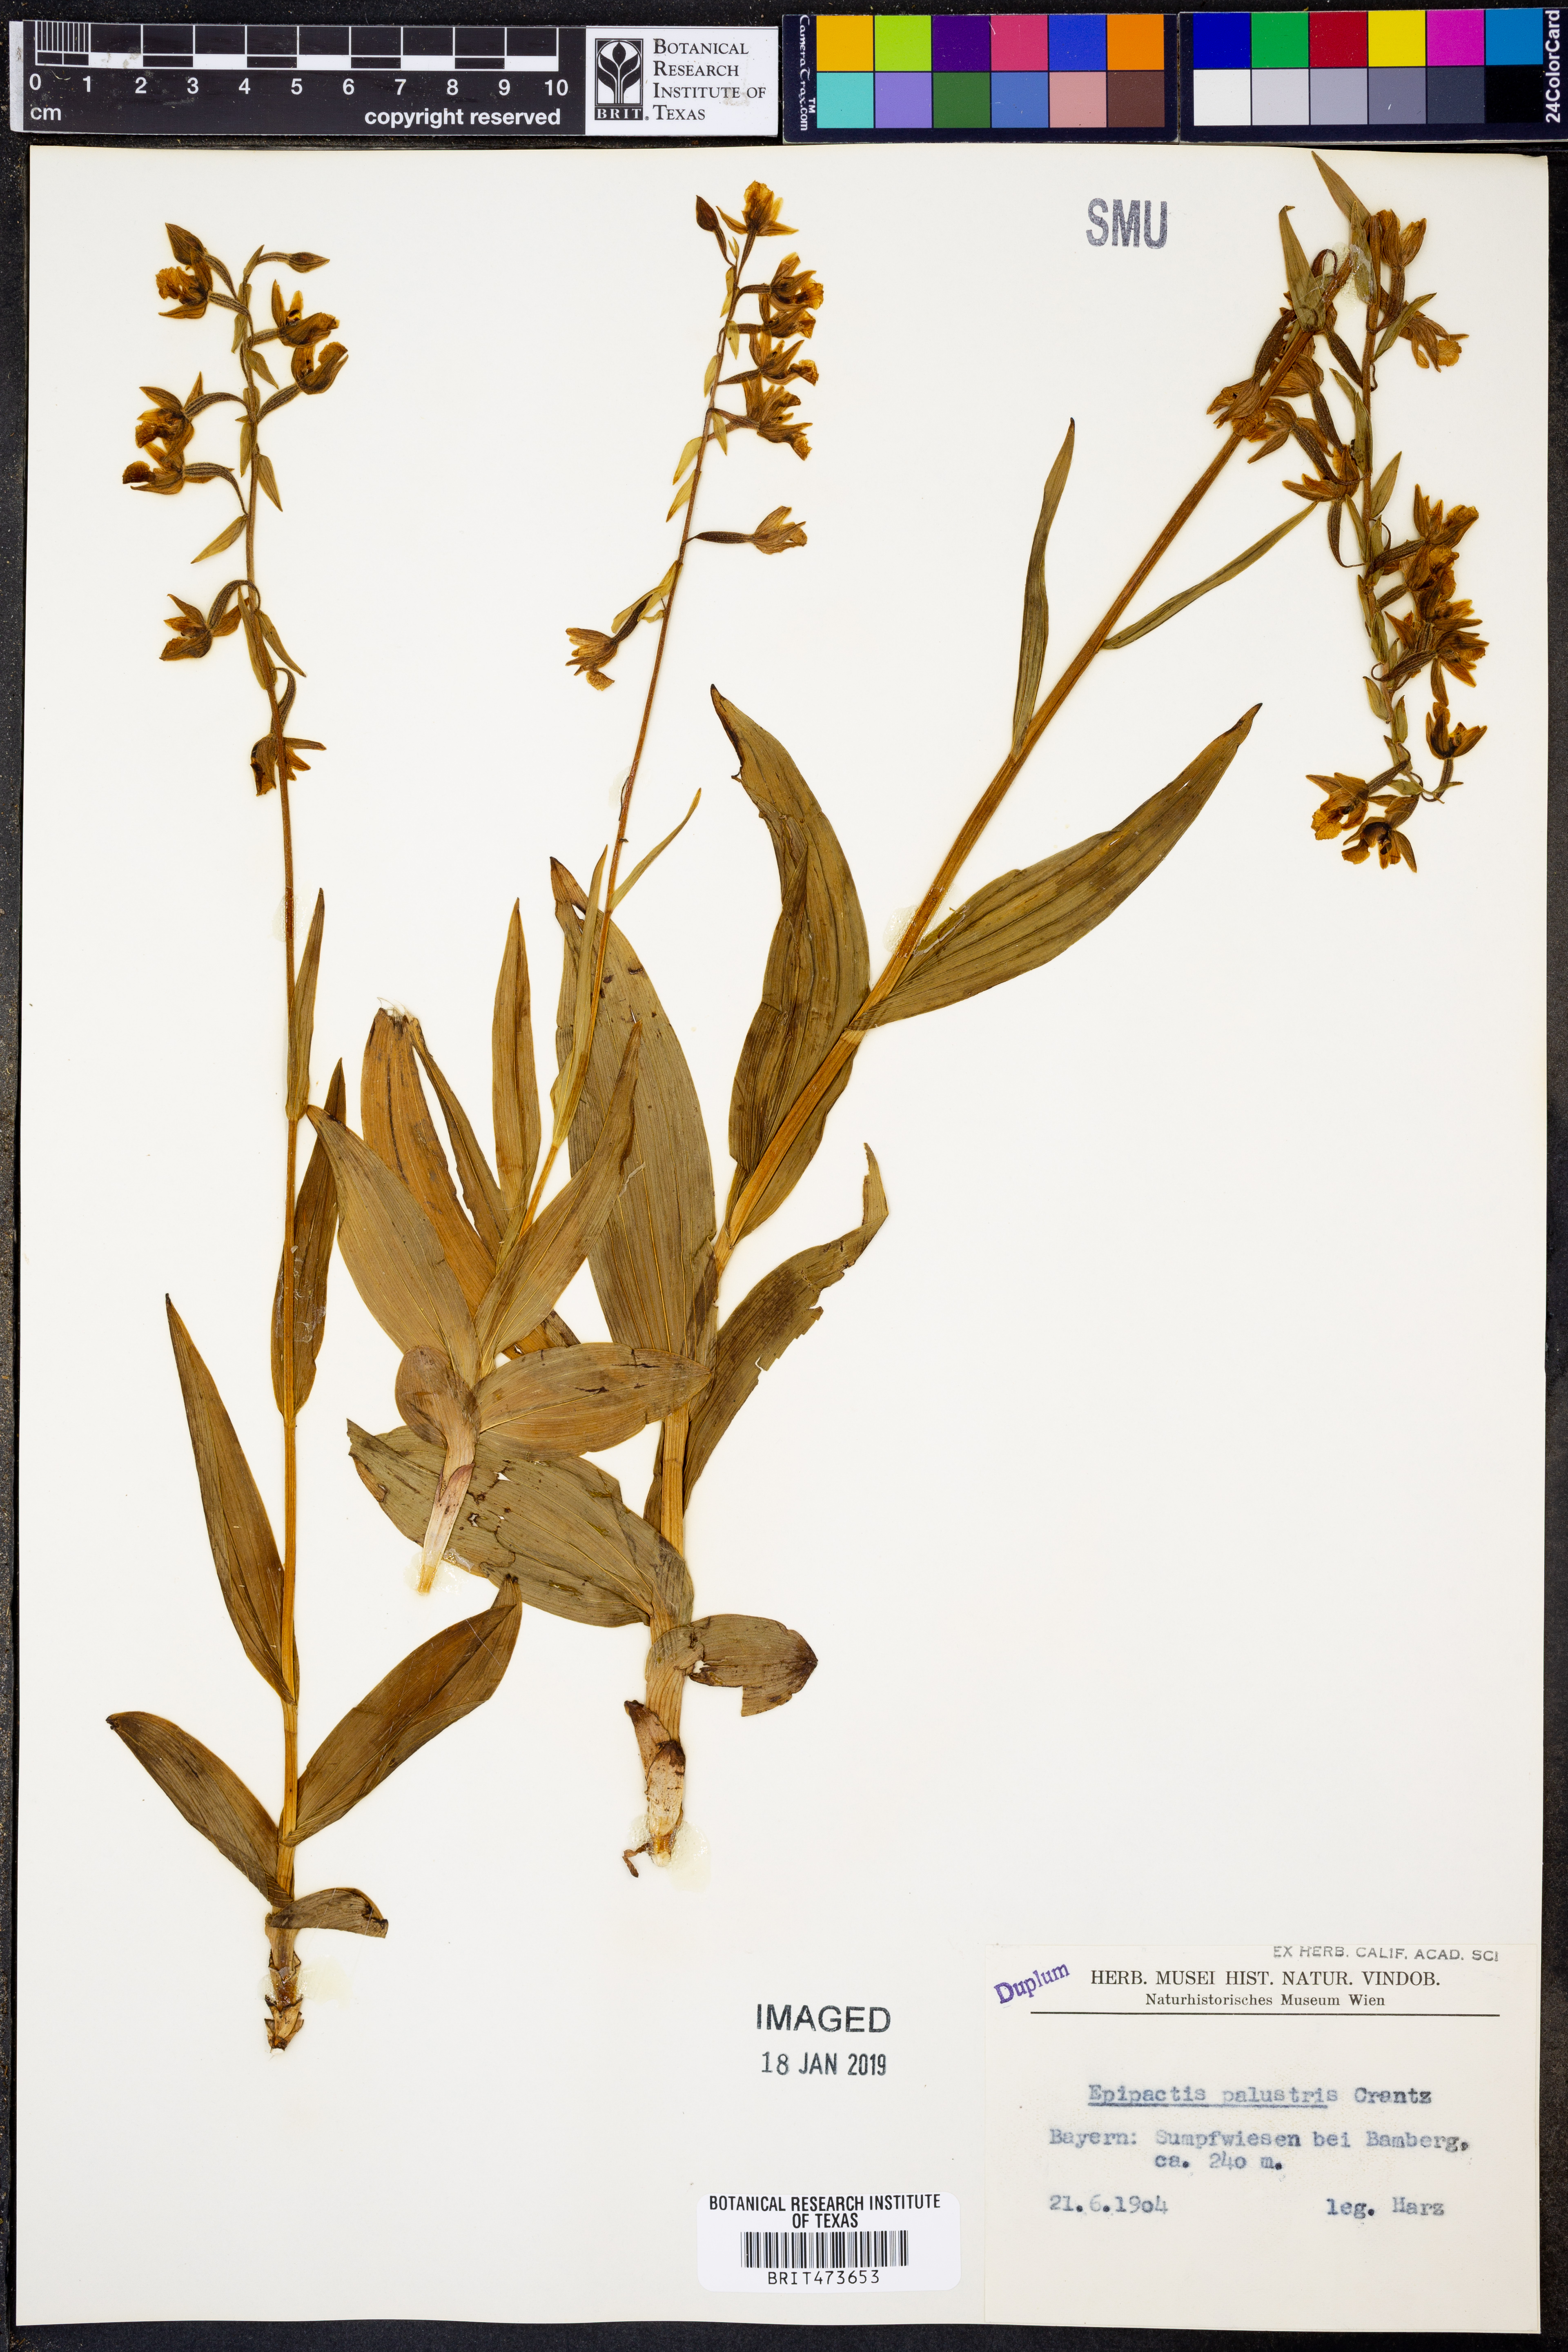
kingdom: Plantae
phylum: Tracheophyta
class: Liliopsida
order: Asparagales
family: Orchidaceae
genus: Epipactis
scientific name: Epipactis palustris
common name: Marsh helleborine
